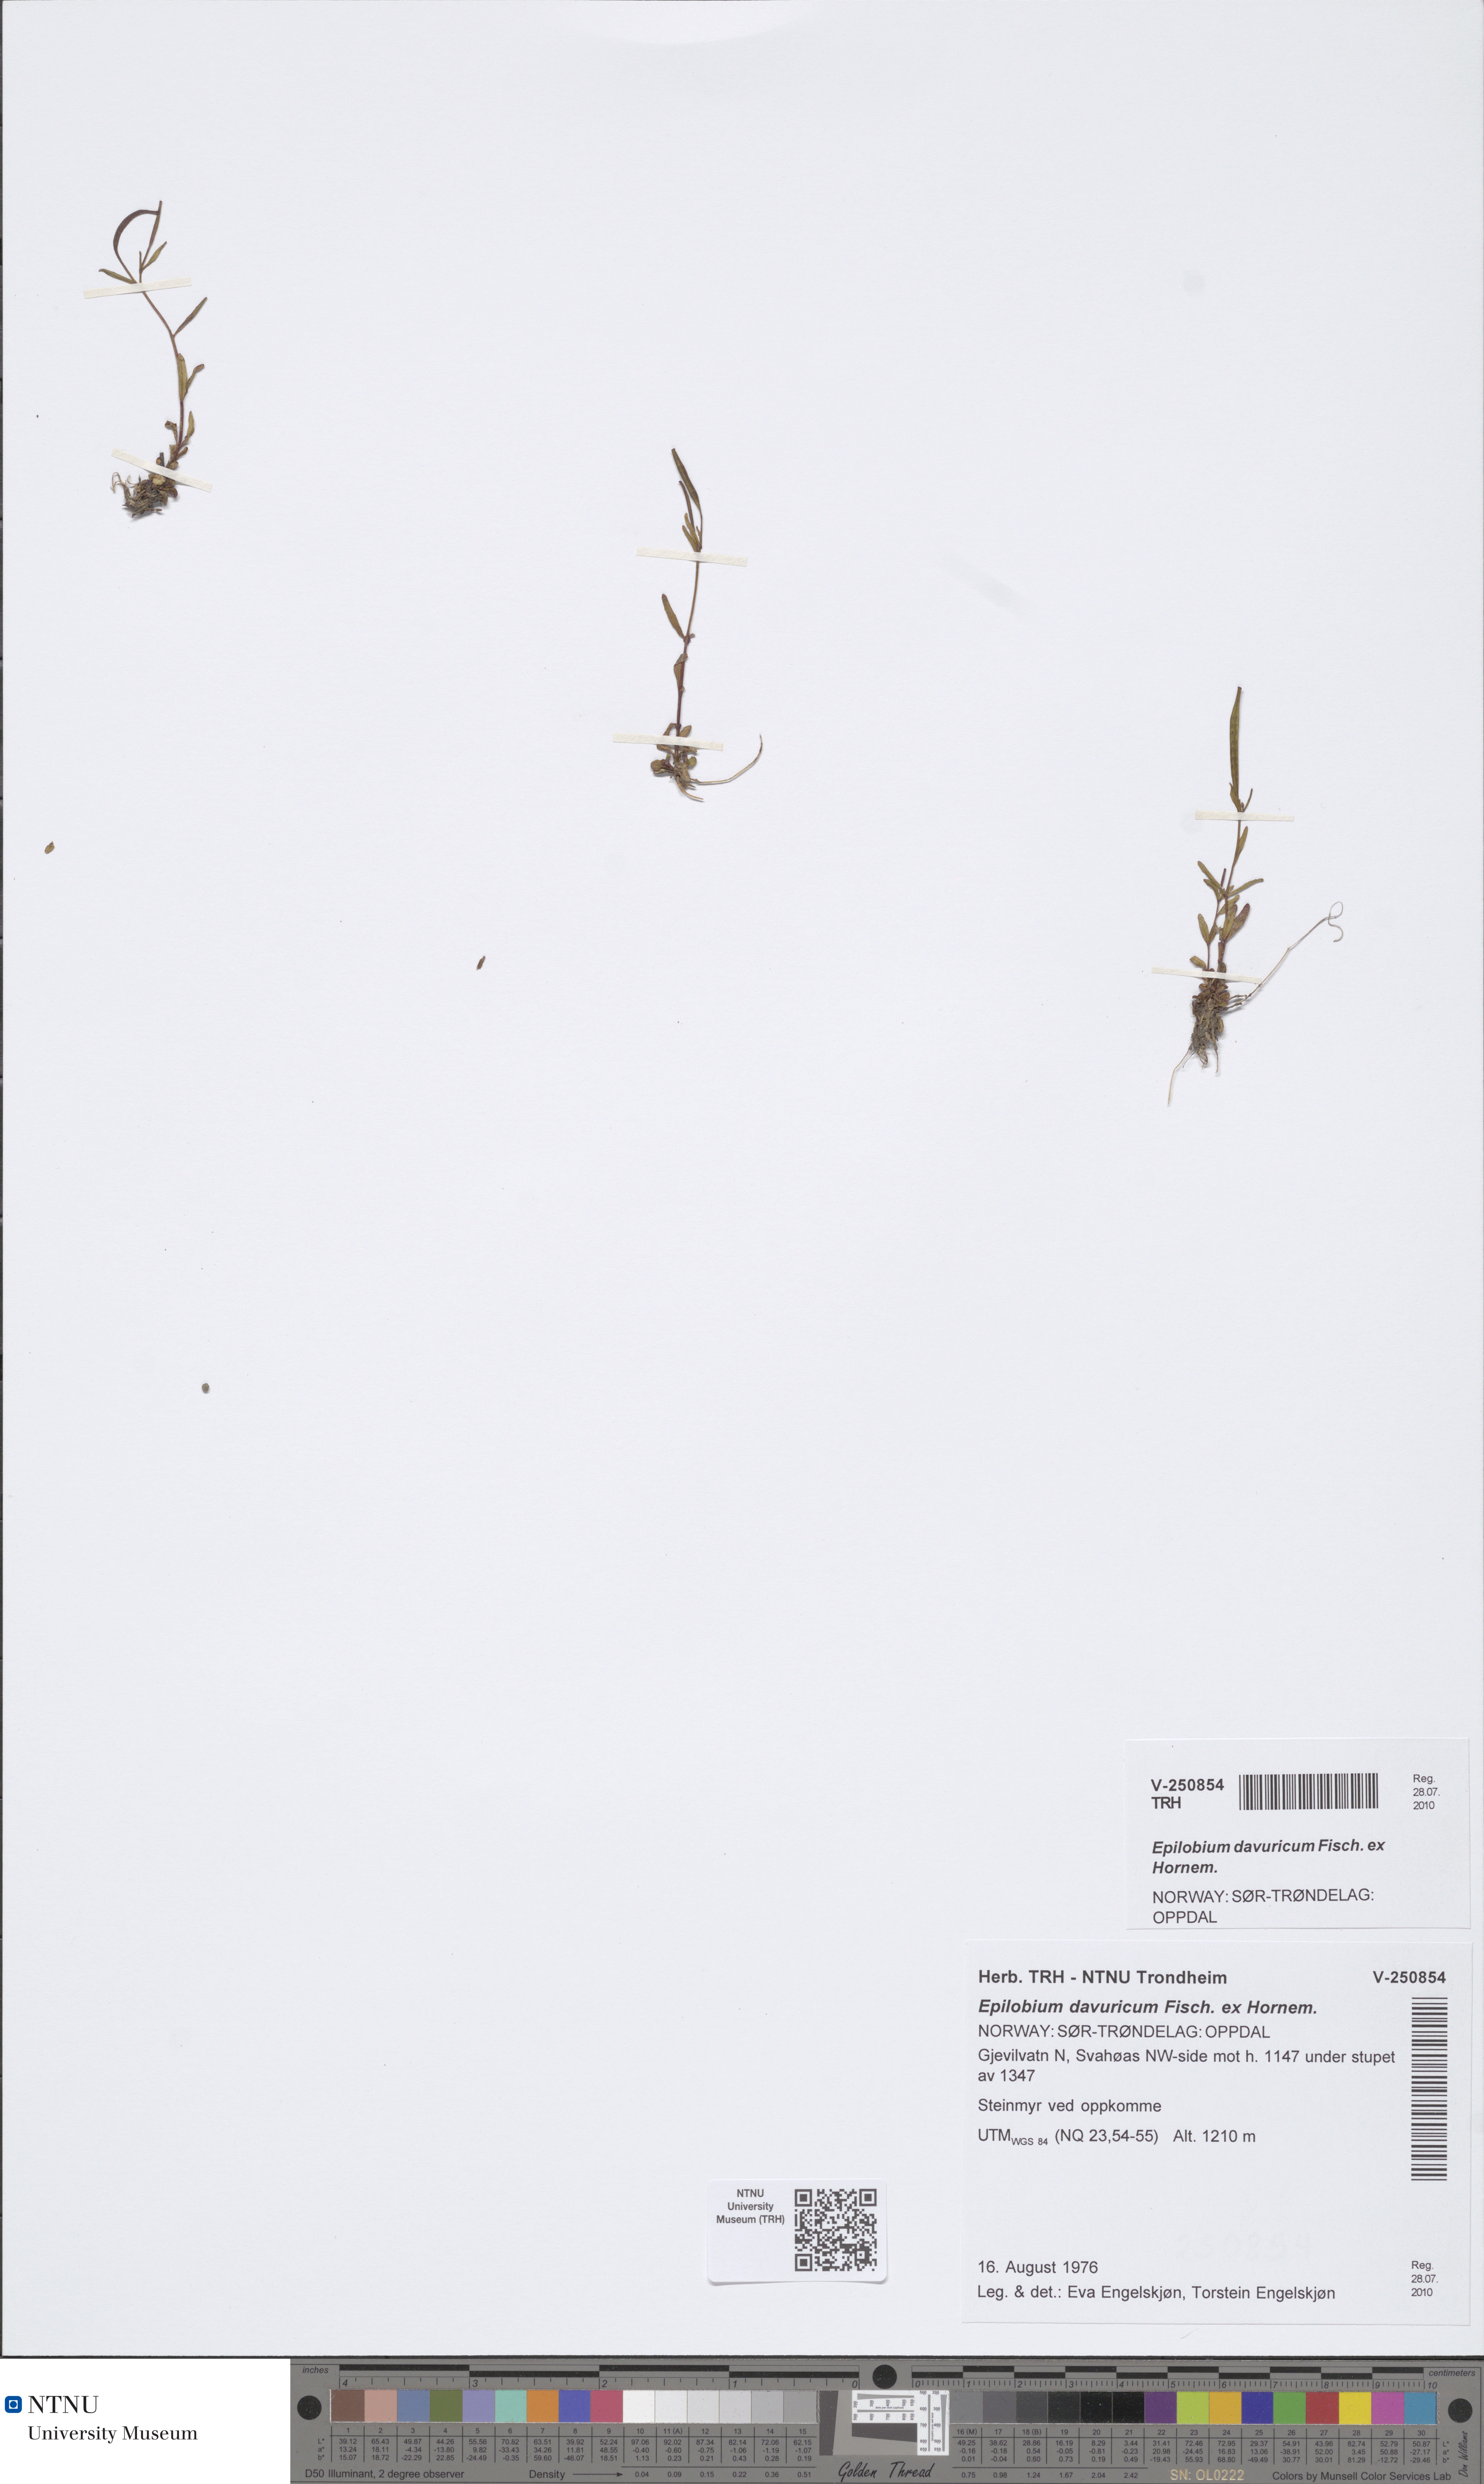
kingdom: Plantae
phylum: Tracheophyta
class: Magnoliopsida
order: Myrtales
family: Onagraceae
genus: Epilobium
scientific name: Epilobium davuricum
